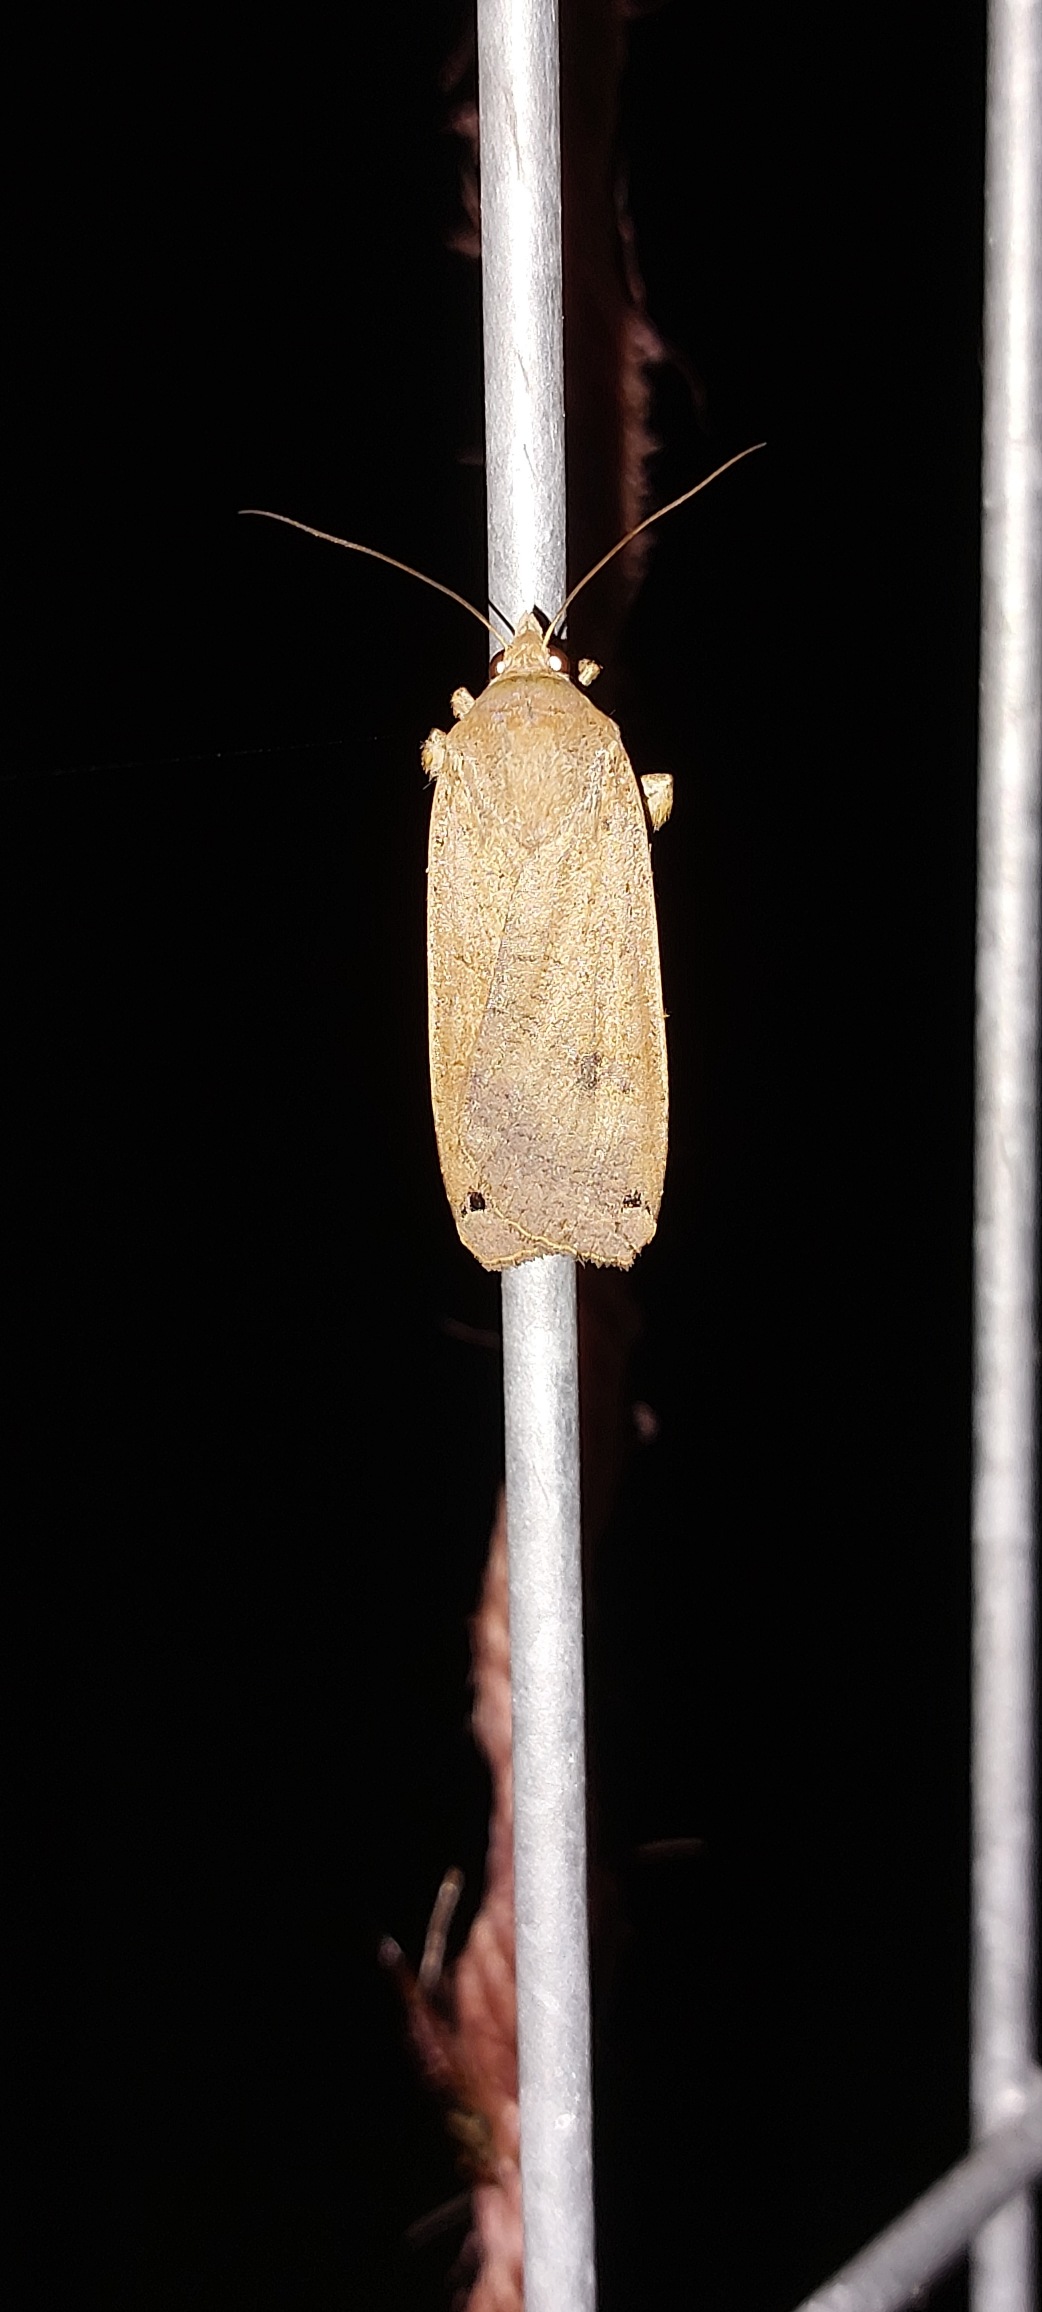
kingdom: Animalia
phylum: Arthropoda
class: Insecta
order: Lepidoptera
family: Noctuidae
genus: Noctua
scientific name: Noctua pronuba
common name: Stor smutugle
